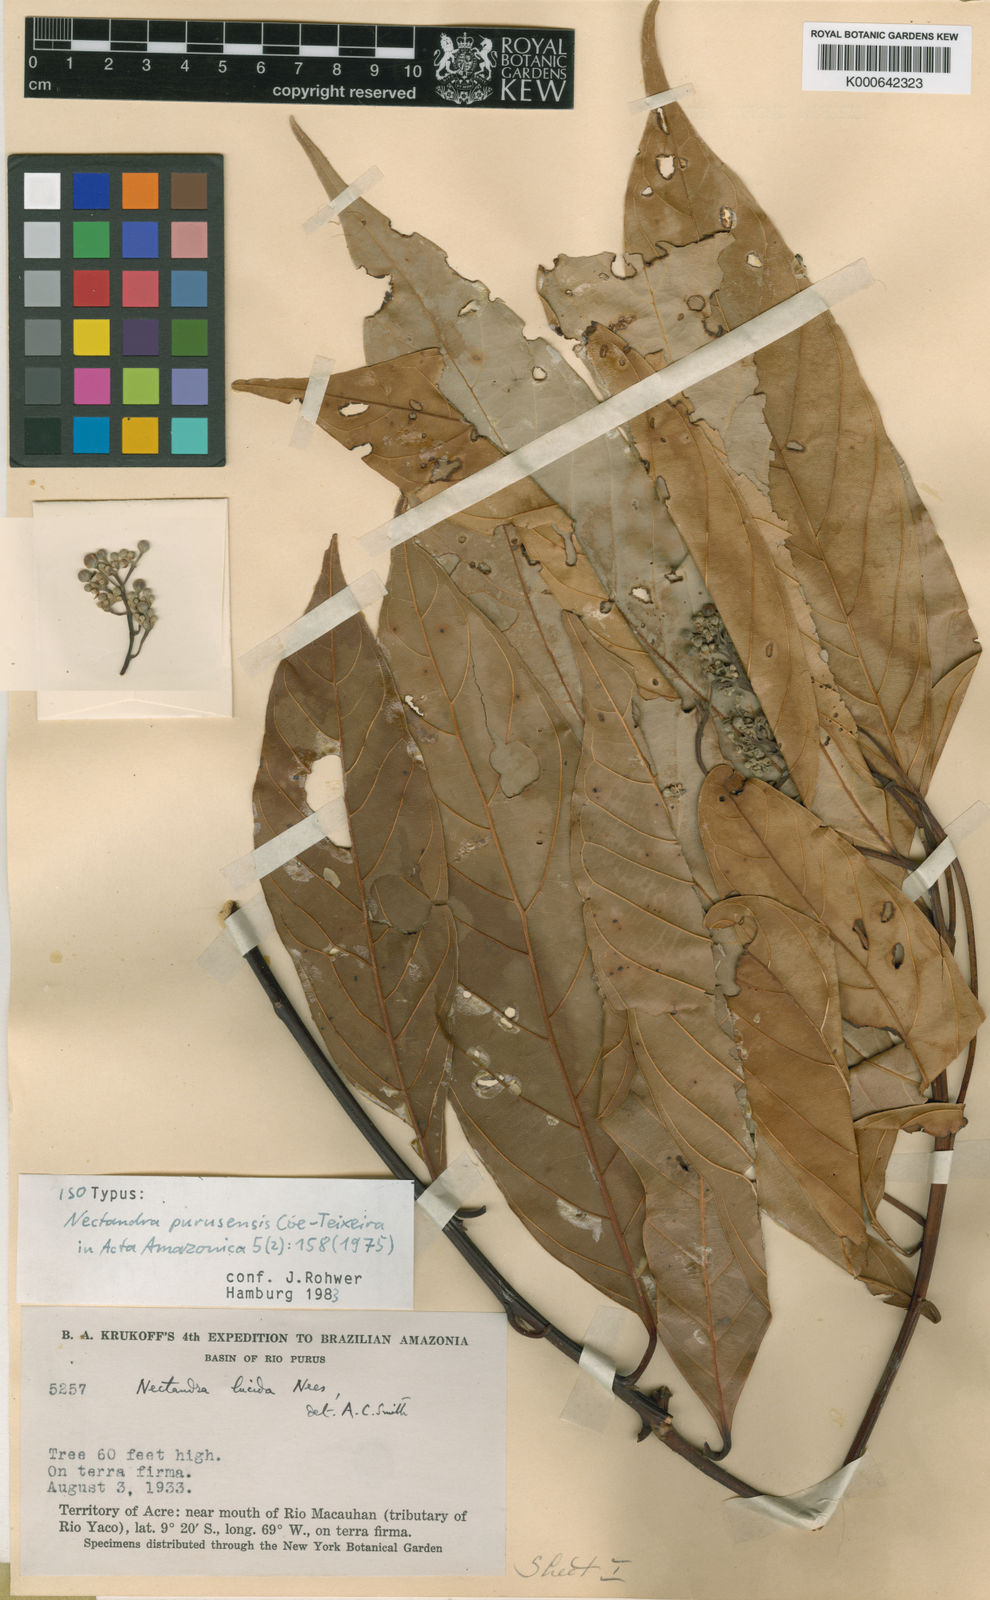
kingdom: Plantae
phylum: Tracheophyta
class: Magnoliopsida
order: Laurales
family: Lauraceae
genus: Nectandra
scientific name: Nectandra pulverulenta
